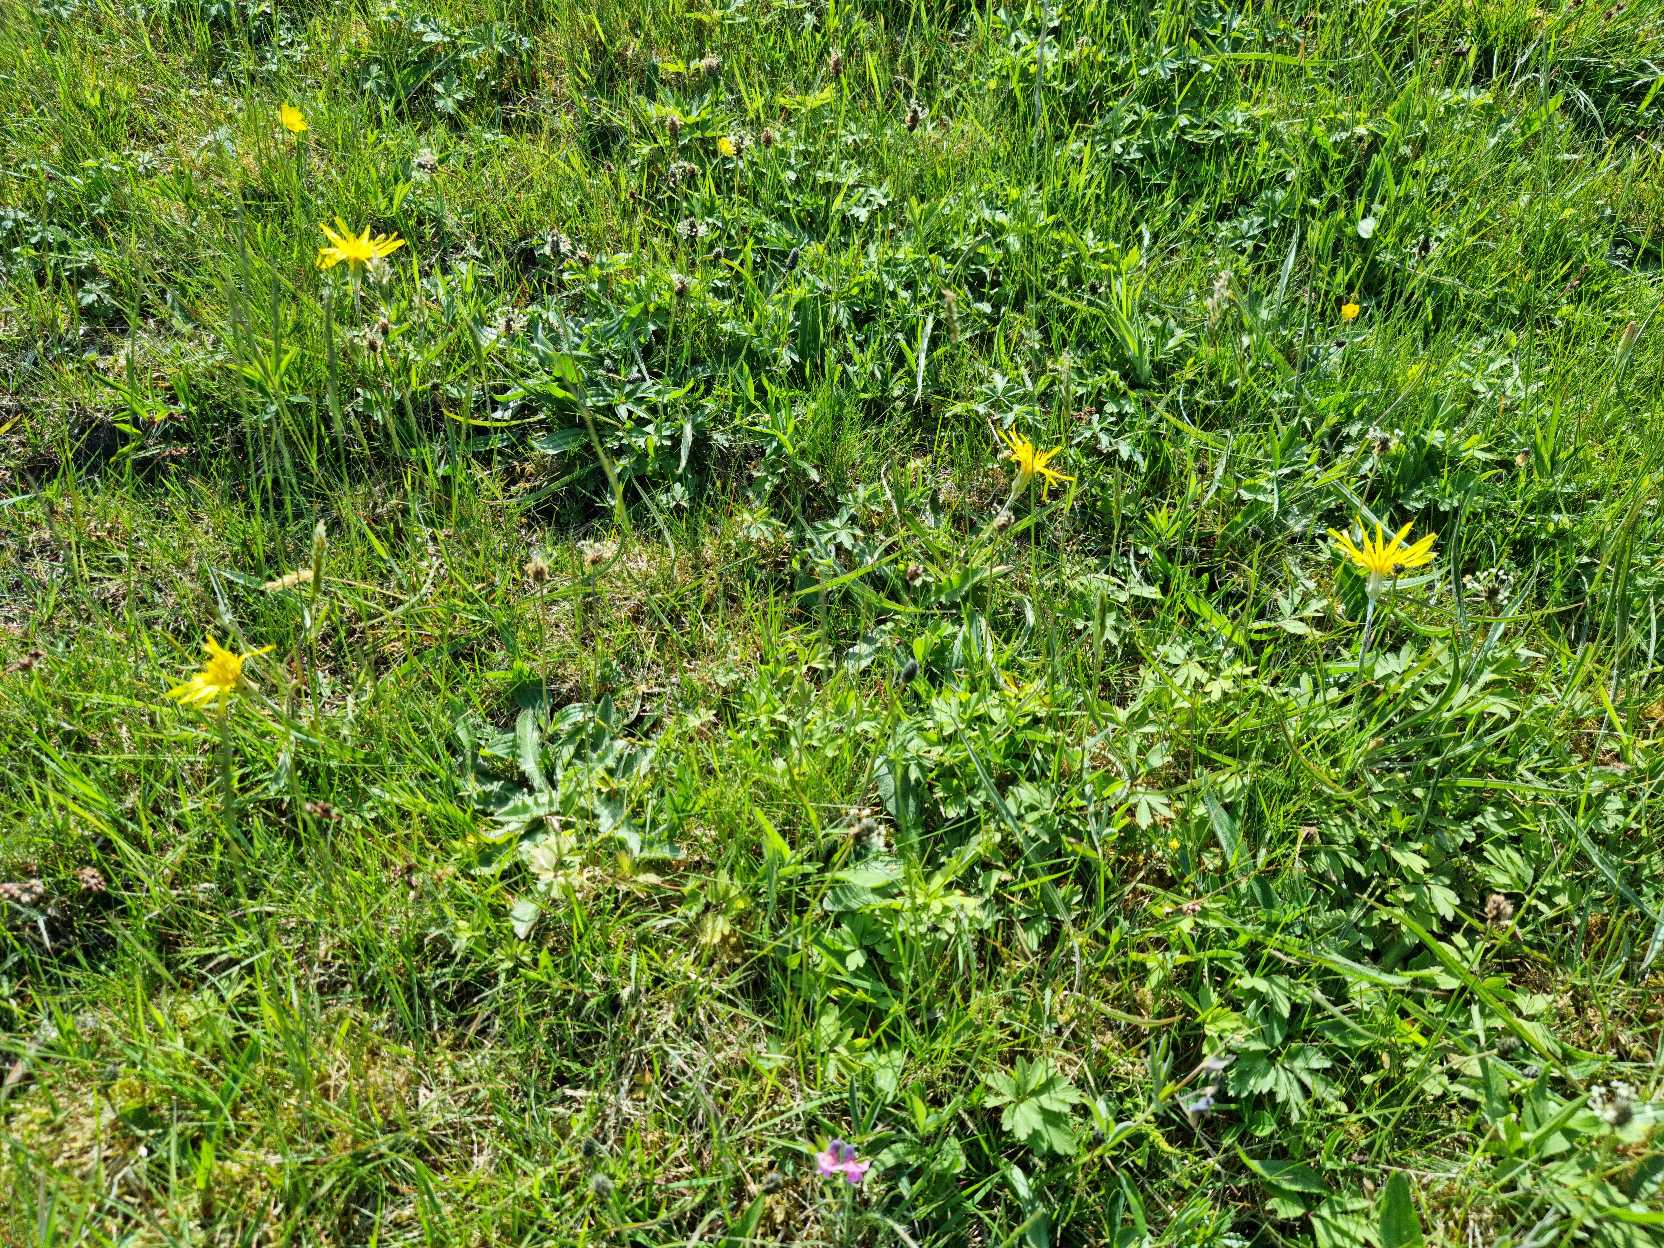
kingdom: Plantae
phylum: Tracheophyta
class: Magnoliopsida
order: Asterales
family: Asteraceae
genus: Scorzonera
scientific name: Scorzonera humilis
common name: Lav skorsoner
